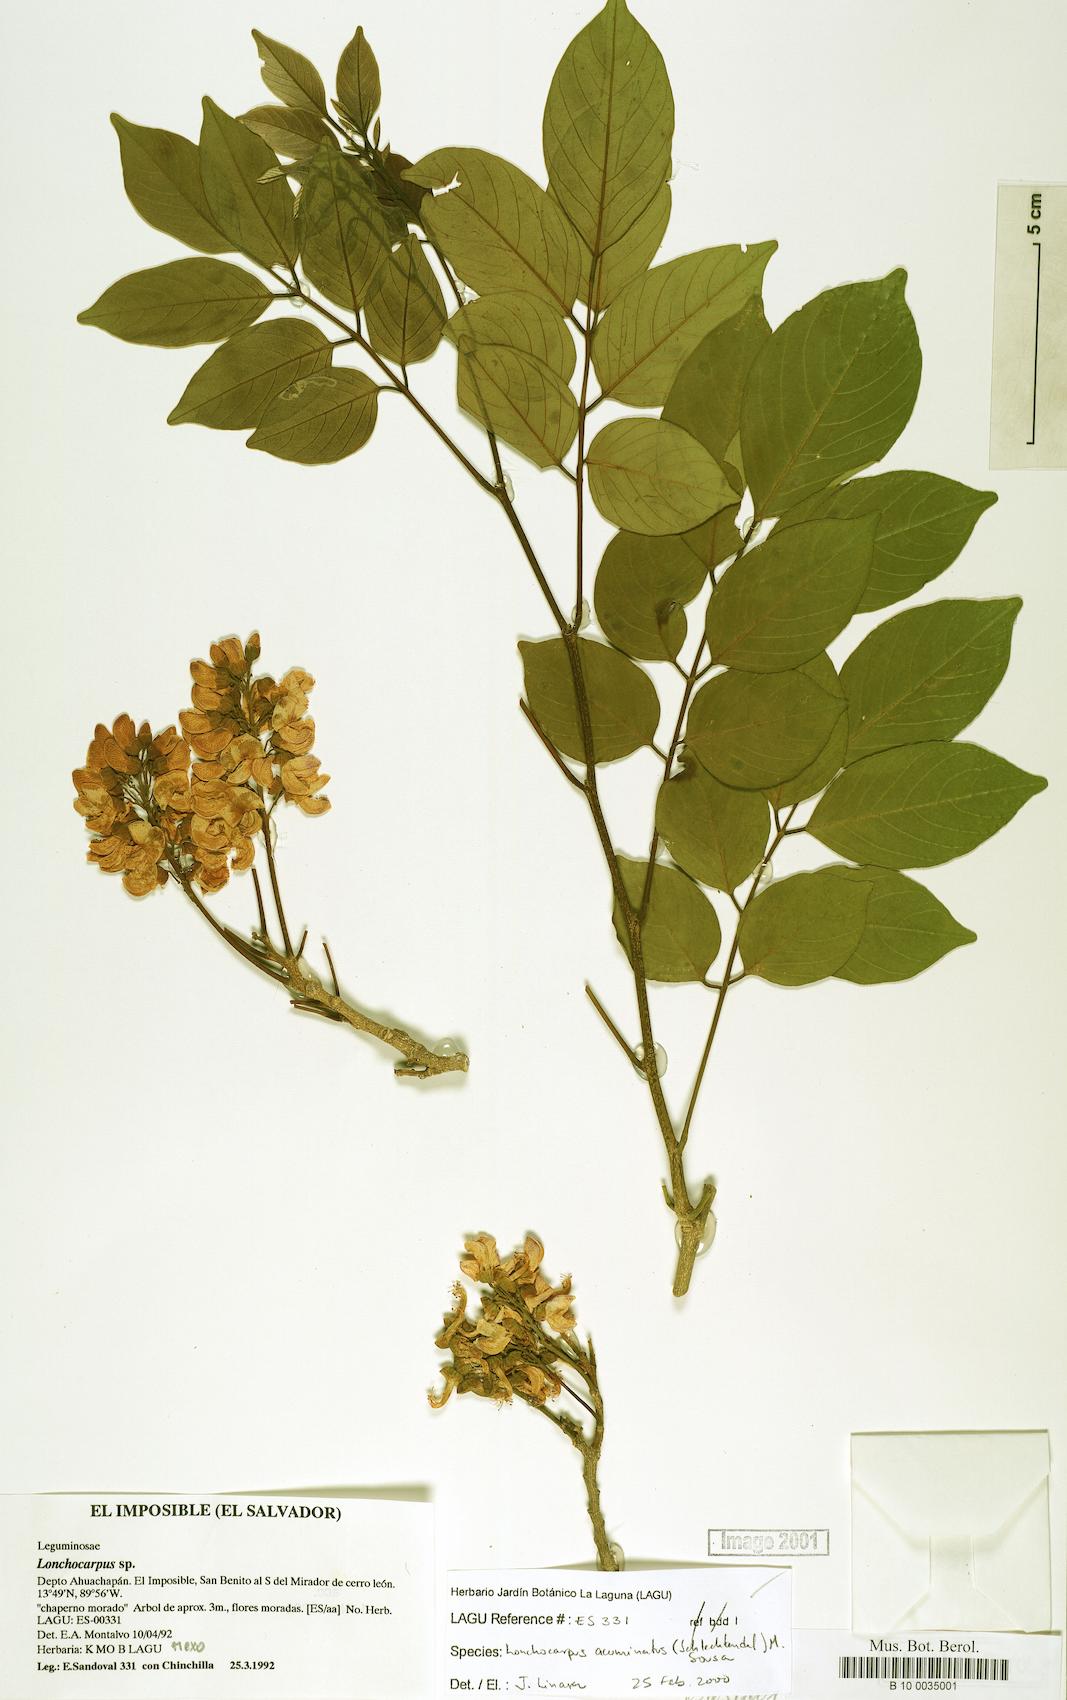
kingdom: Plantae
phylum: Tracheophyta
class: Magnoliopsida
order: Fabales
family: Fabaceae
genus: Lonchocarpus
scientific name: Lonchocarpus acuminatus
